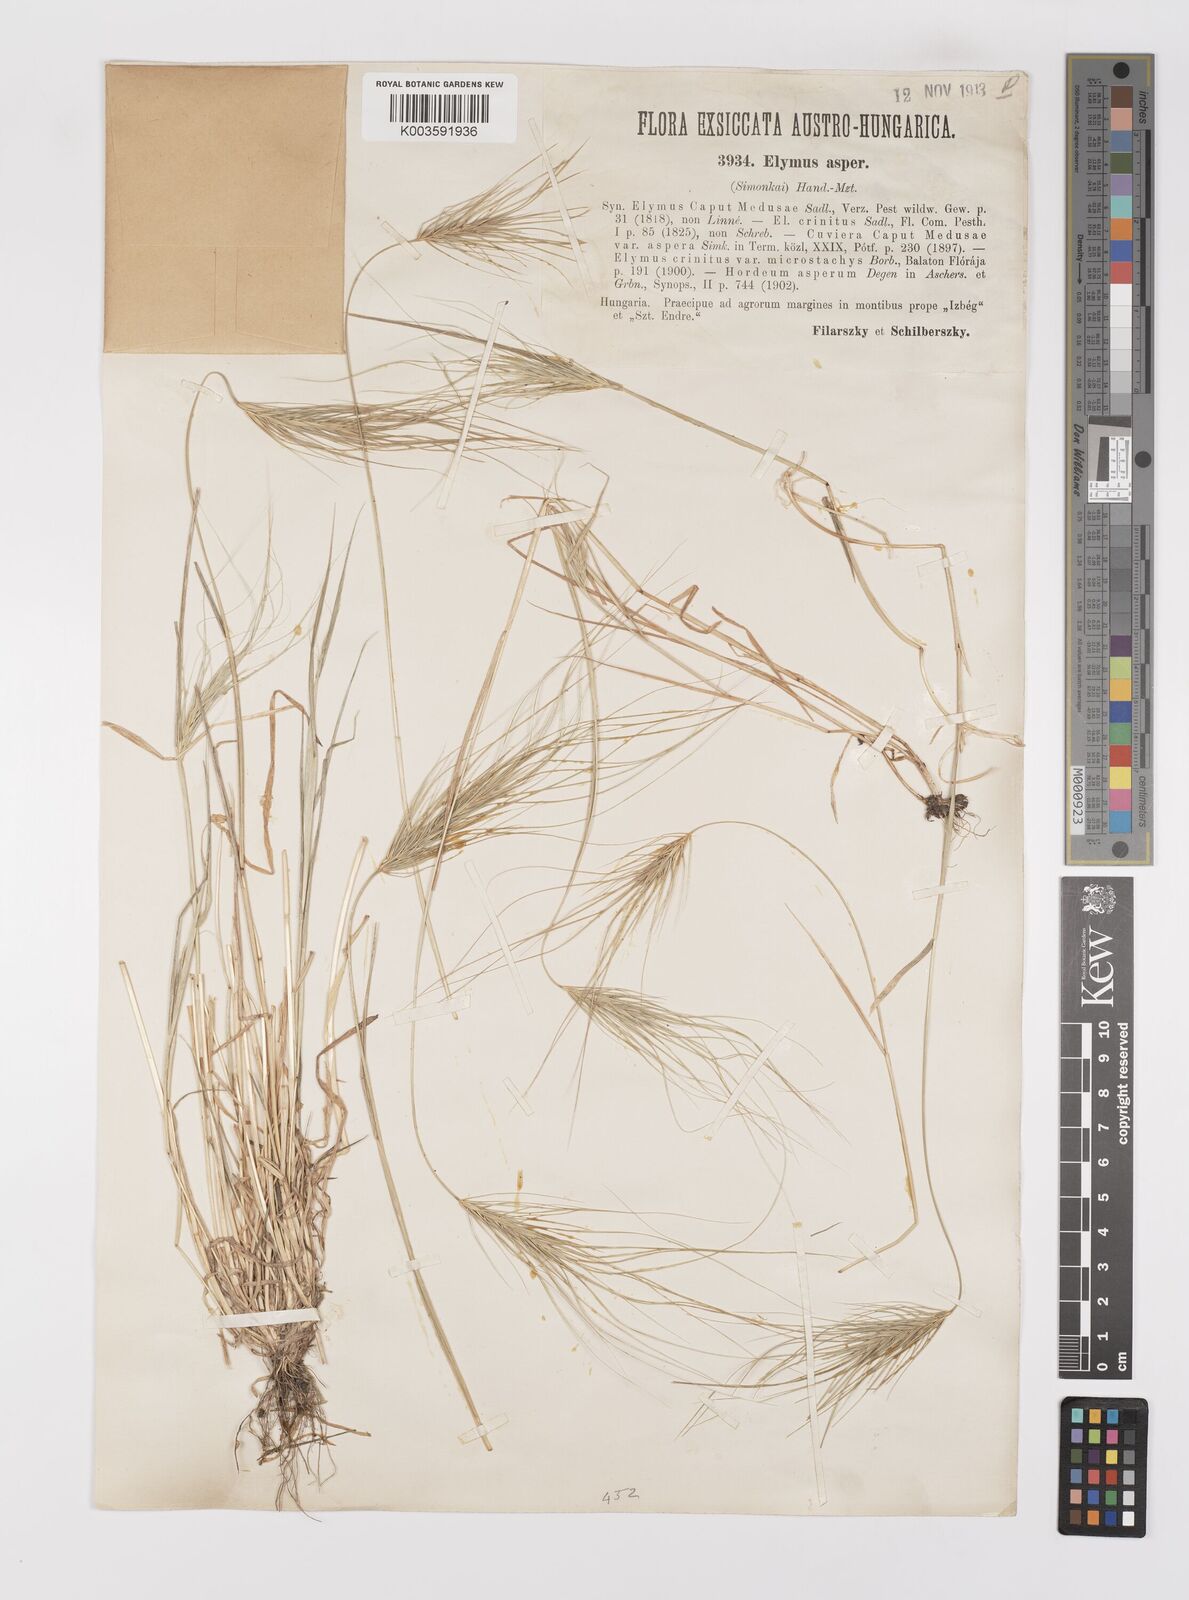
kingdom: Plantae
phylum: Tracheophyta
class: Liliopsida
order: Poales
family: Poaceae
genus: Taeniatherum
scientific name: Taeniatherum caput-medusae
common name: Medusahead
